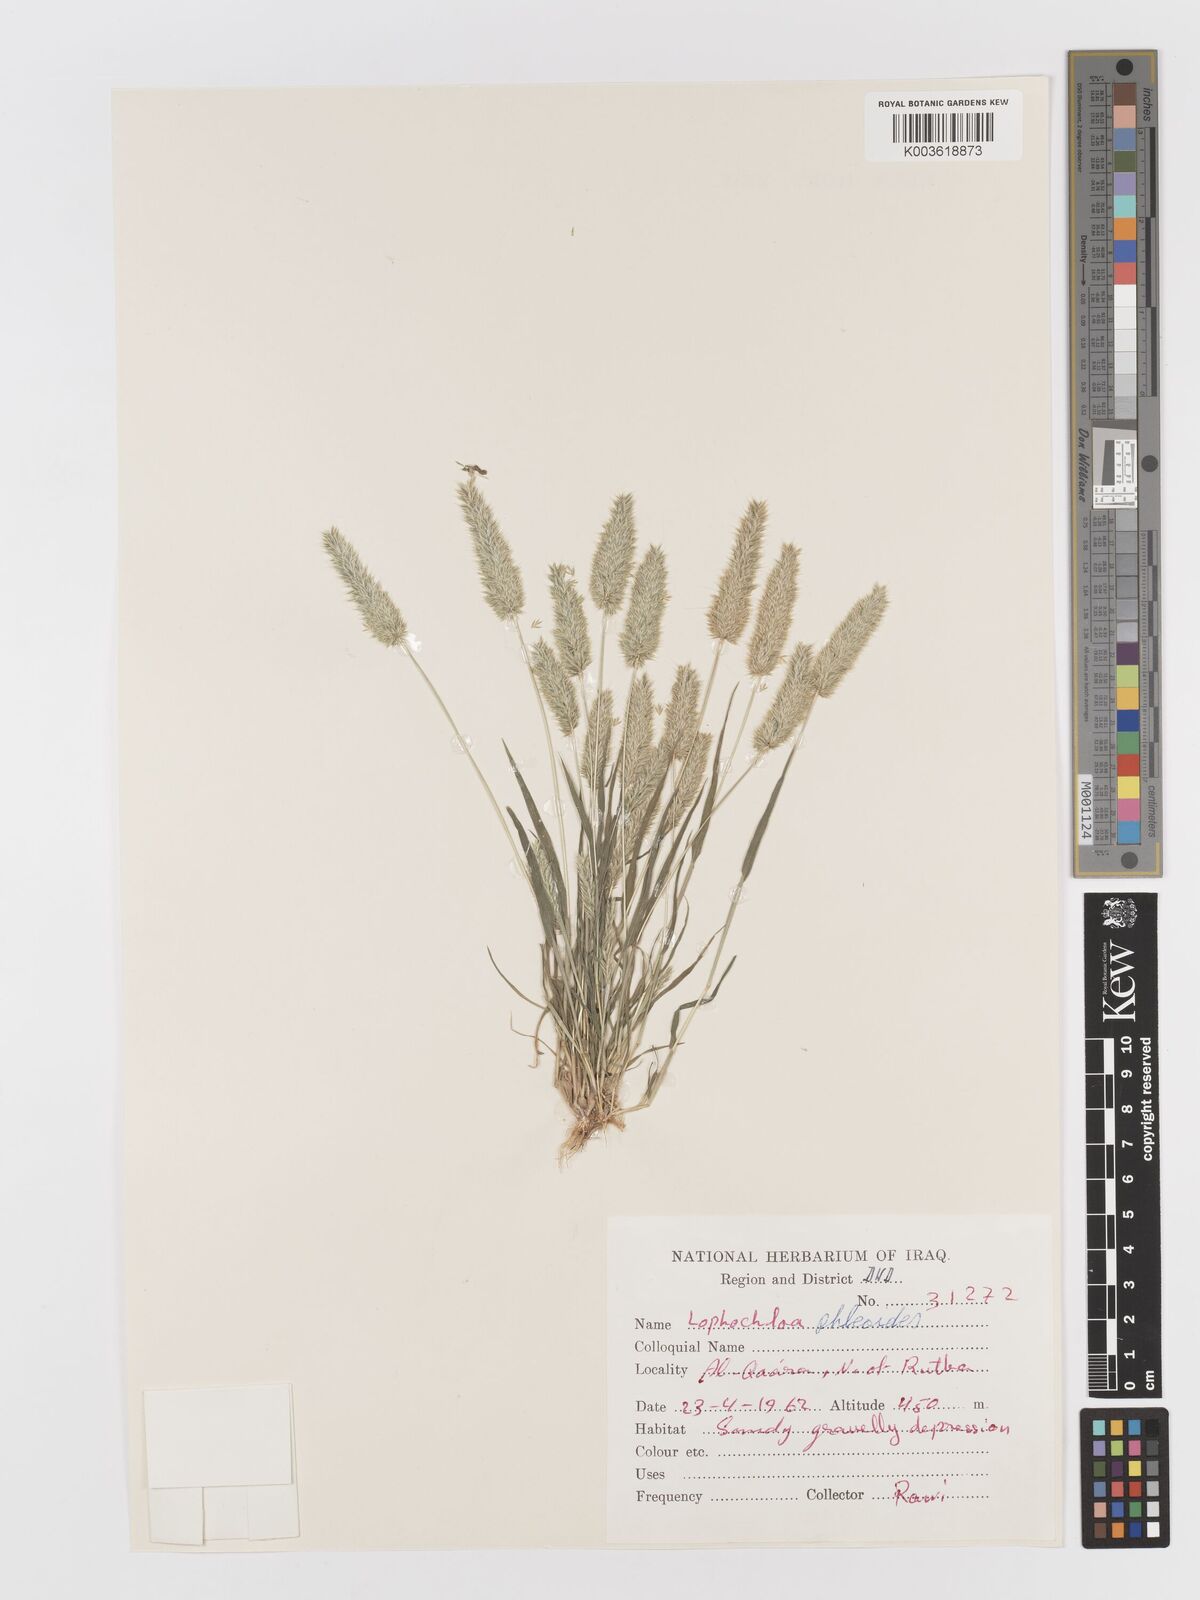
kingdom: Plantae
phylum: Tracheophyta
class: Liliopsida
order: Poales
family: Poaceae
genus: Rostraria
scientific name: Rostraria cristata
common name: Mediterranean hair-grass
